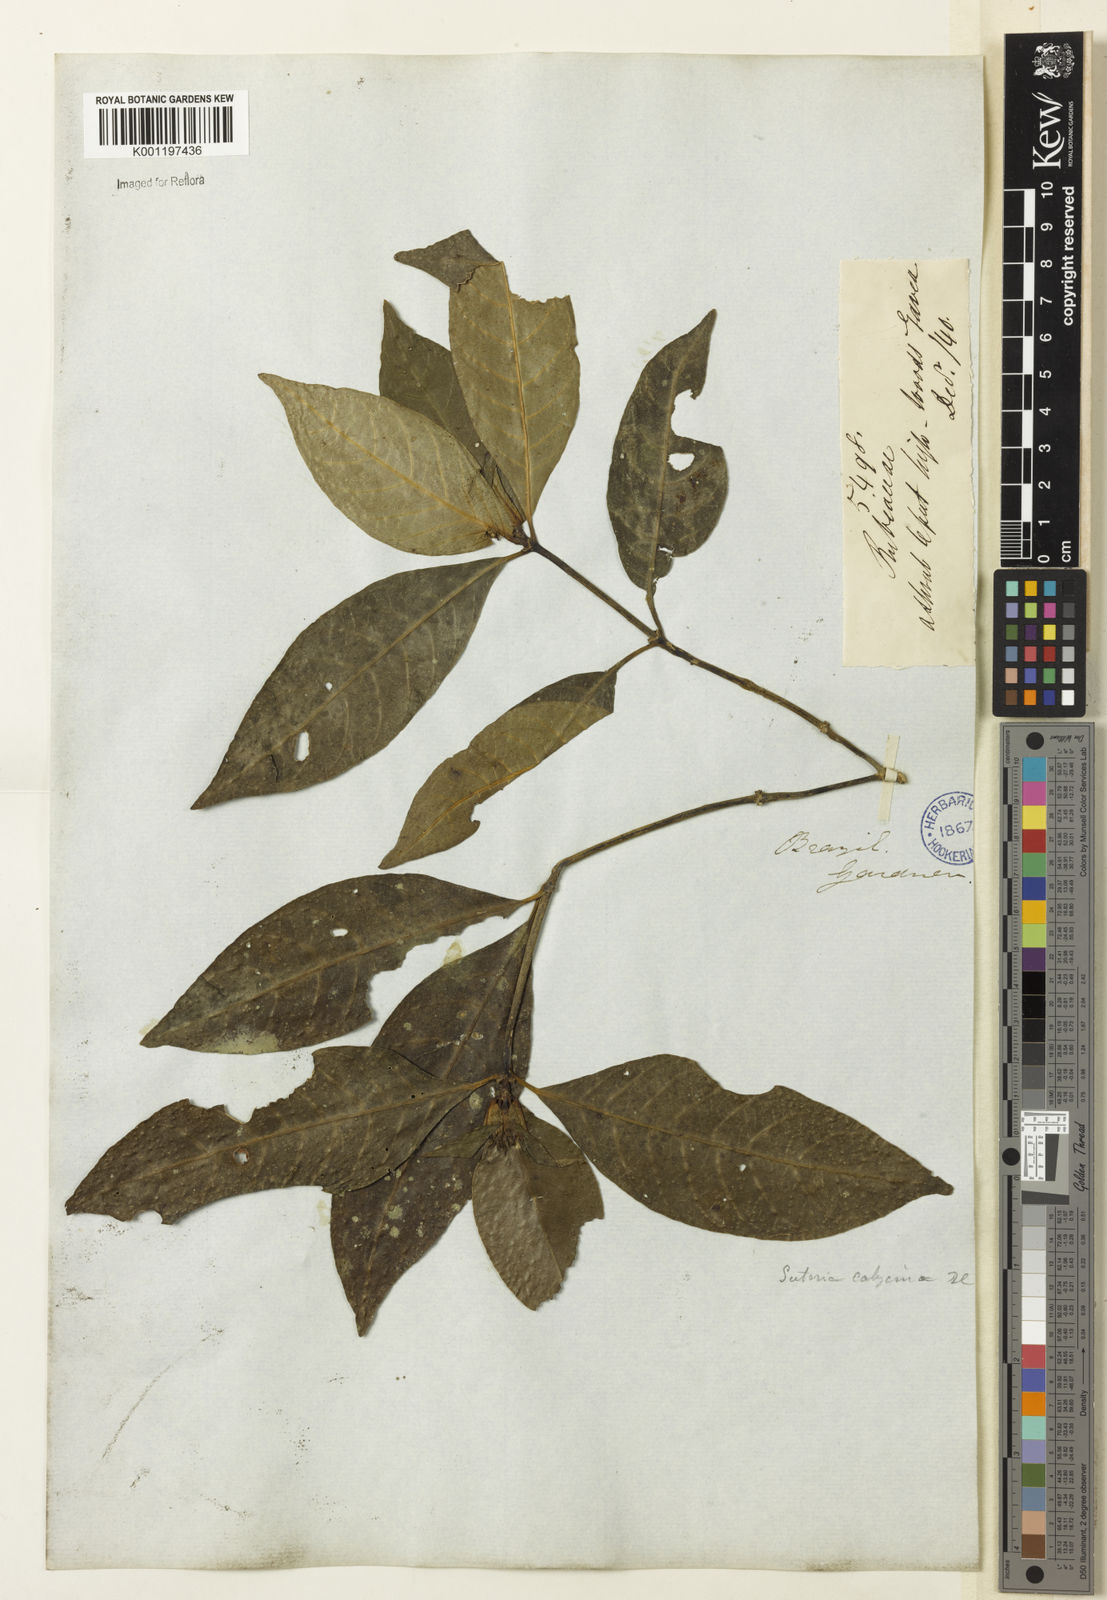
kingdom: Plantae
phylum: Tracheophyta
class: Magnoliopsida
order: Gentianales
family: Rubiaceae
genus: Psychotria
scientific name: Psychotria
